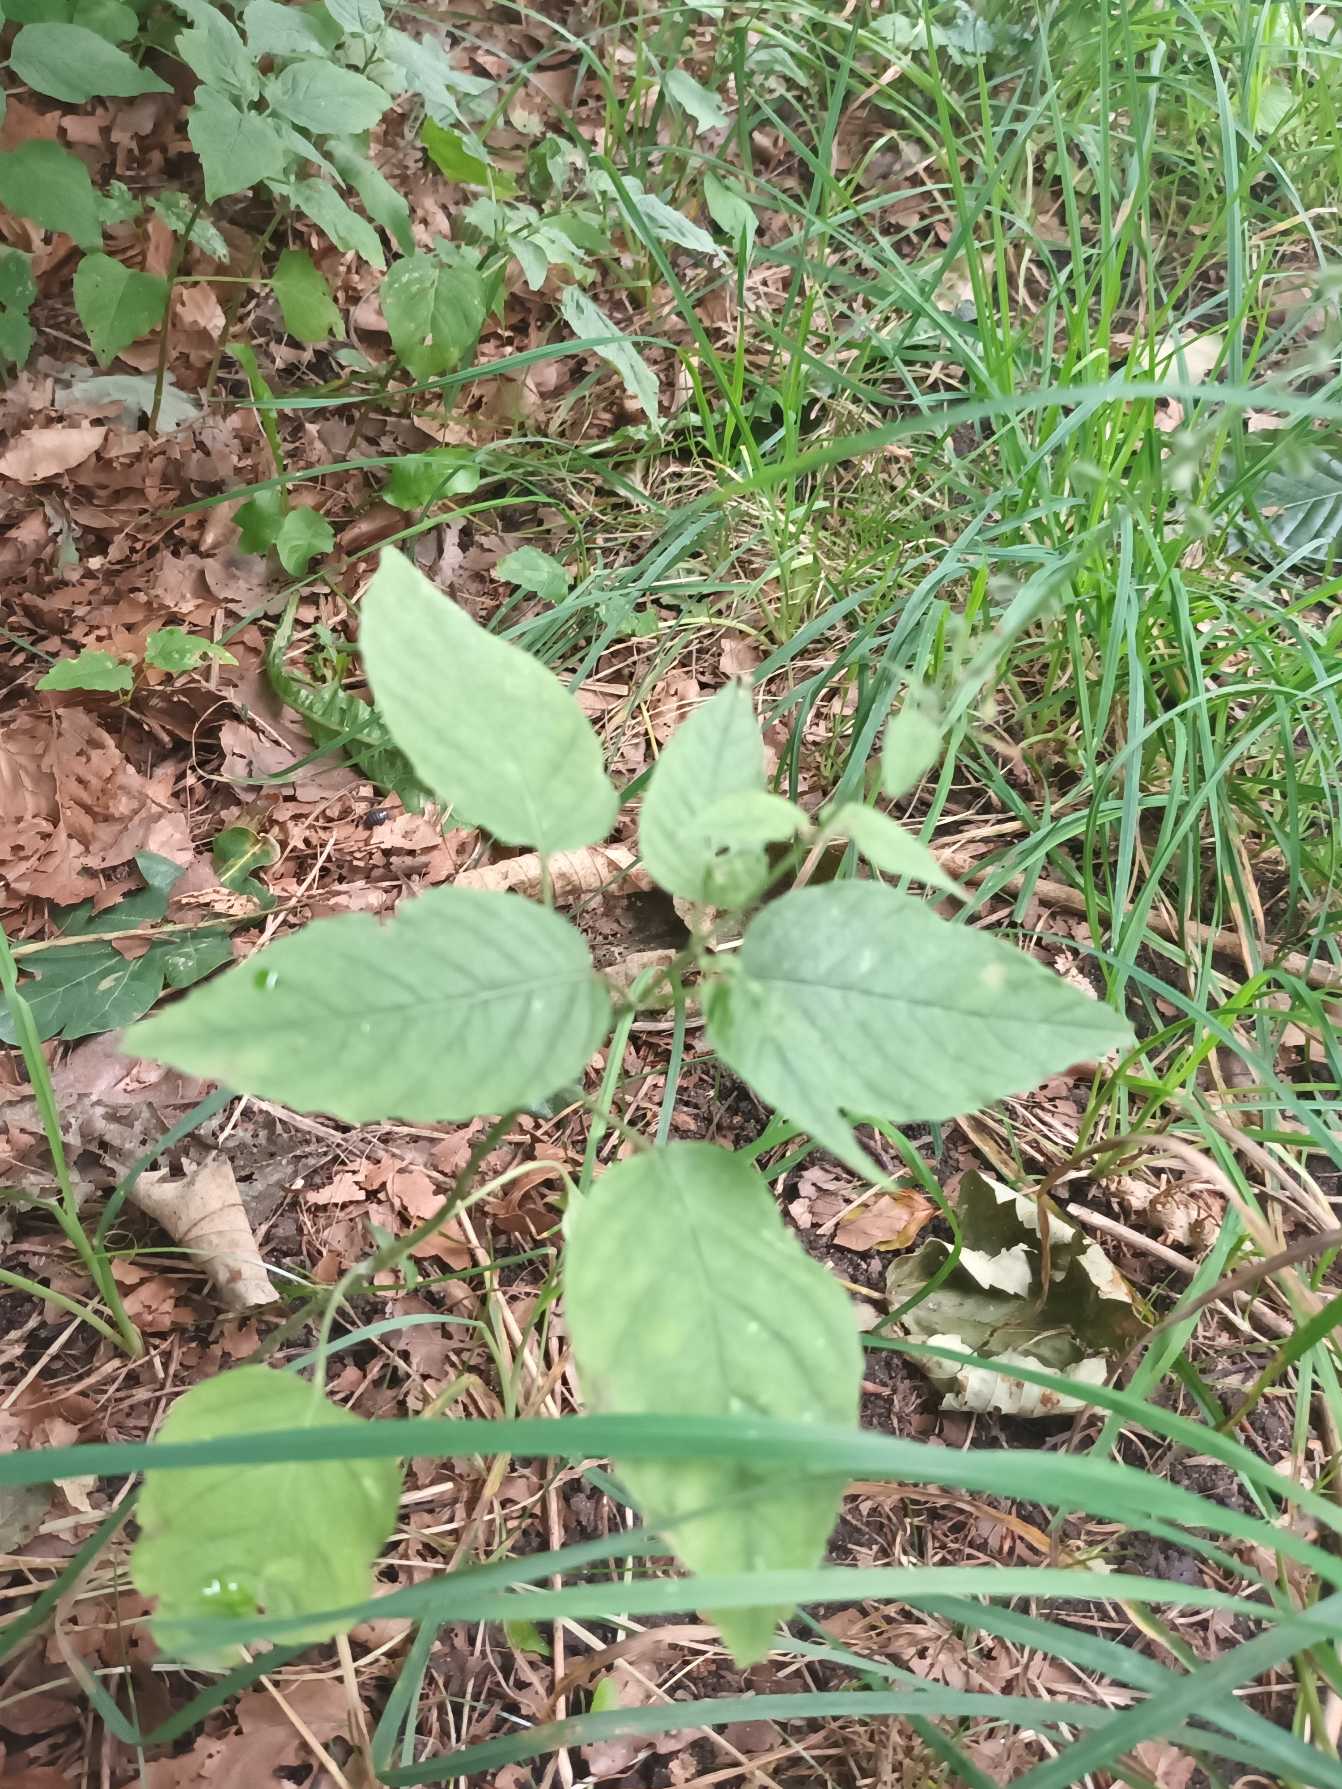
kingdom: Plantae
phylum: Tracheophyta
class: Magnoliopsida
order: Myrtales
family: Onagraceae
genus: Circaea
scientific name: Circaea lutetiana
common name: Dunet steffensurt
